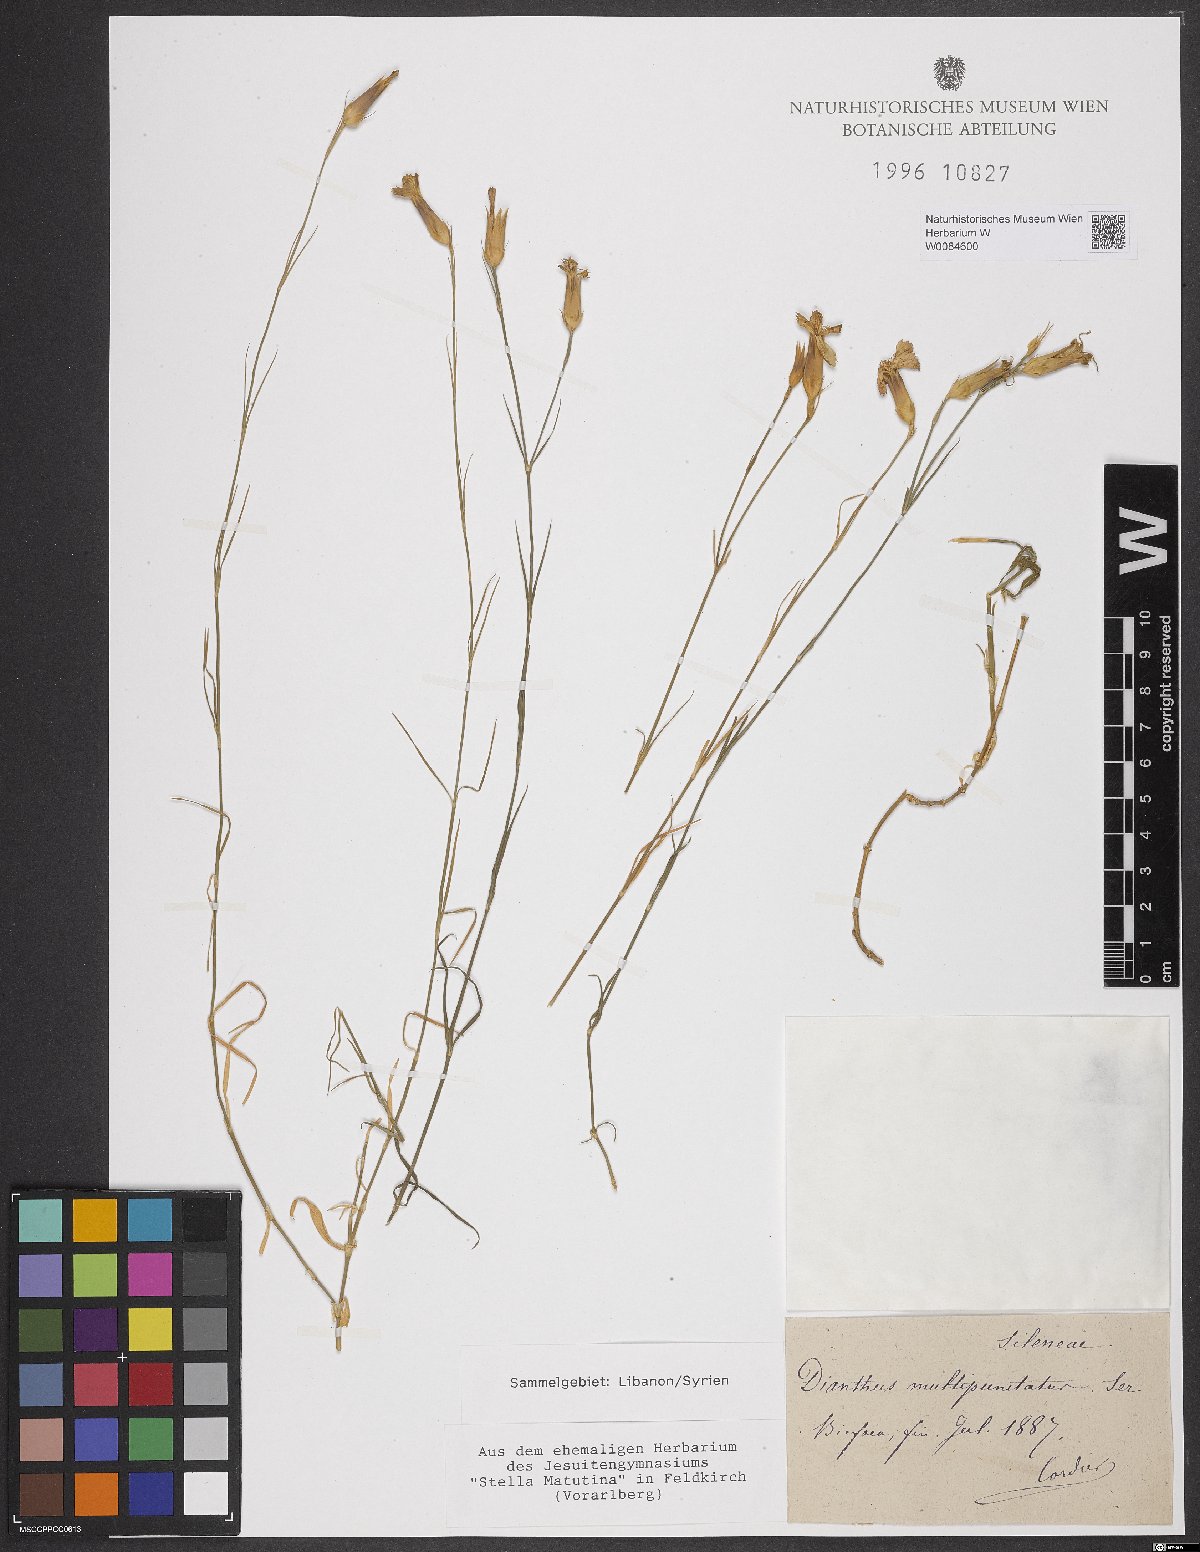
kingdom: Plantae
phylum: Tracheophyta
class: Magnoliopsida
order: Caryophyllales
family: Caryophyllaceae
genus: Dianthus
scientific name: Dianthus strictus
